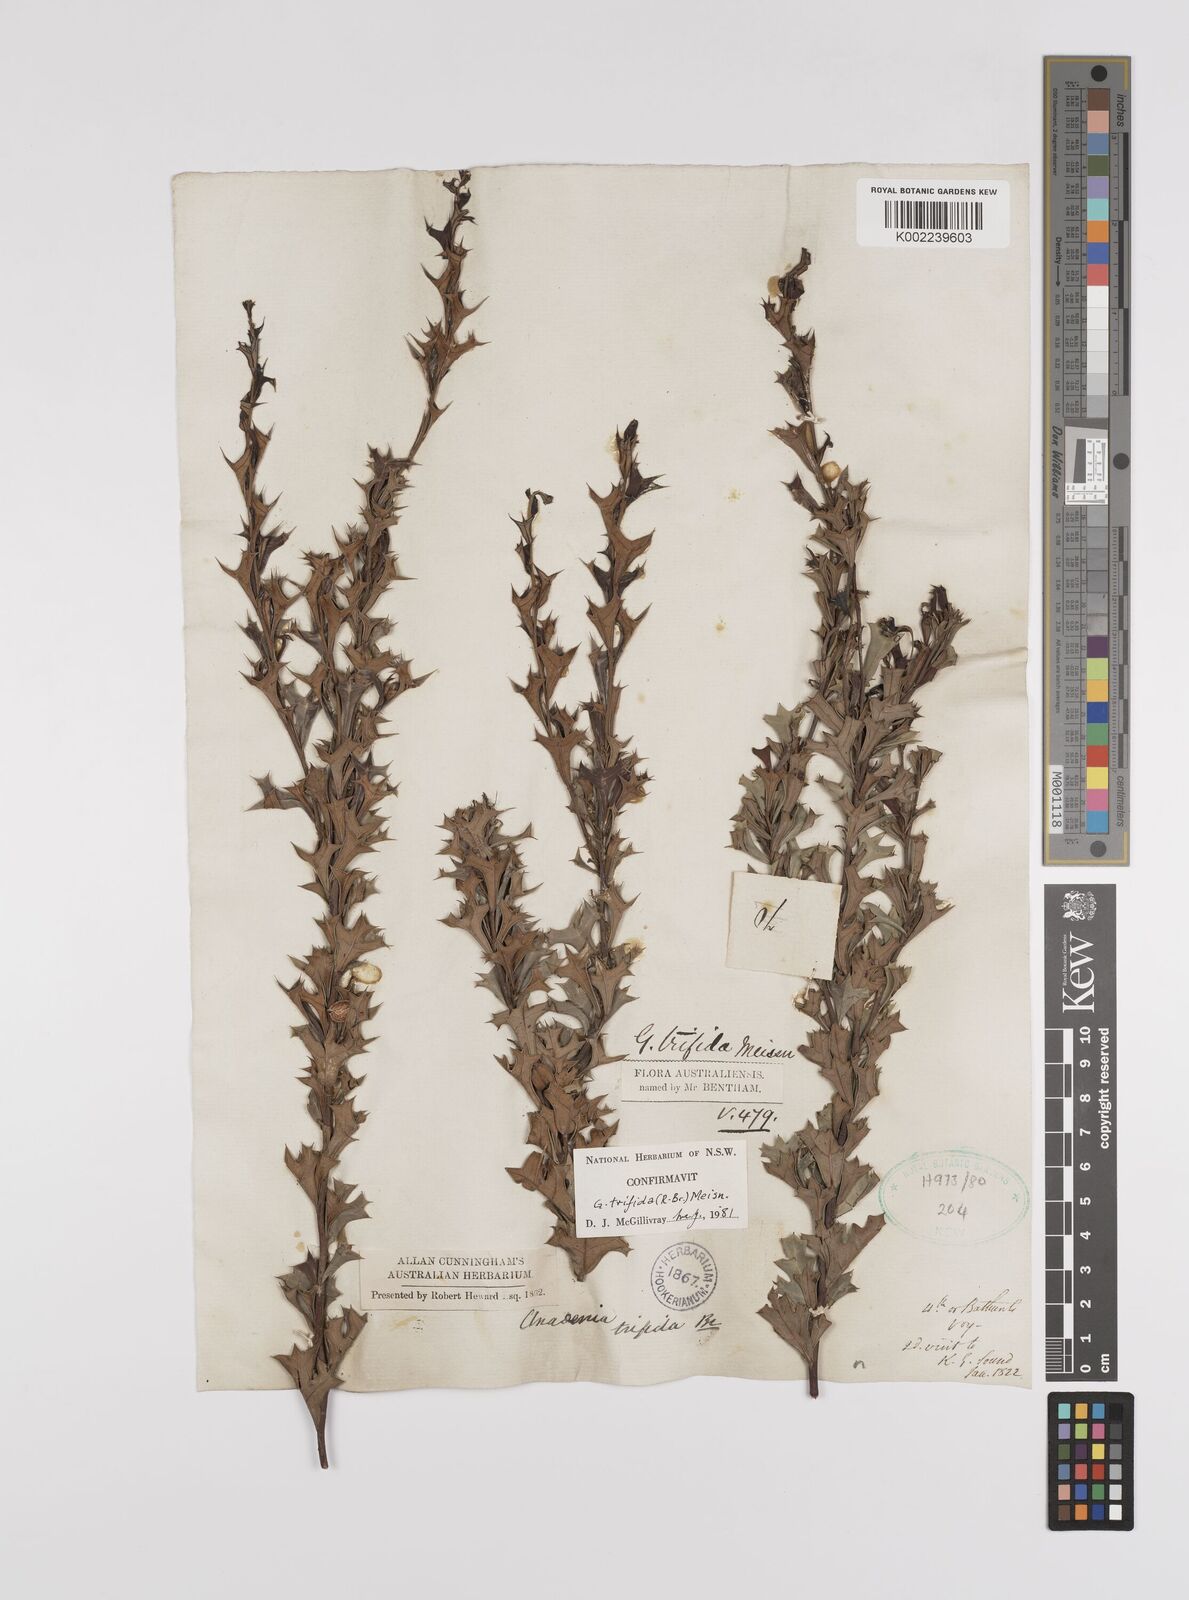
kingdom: Plantae
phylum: Tracheophyta
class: Magnoliopsida
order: Proteales
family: Proteaceae
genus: Grevillea
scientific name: Grevillea trifida
